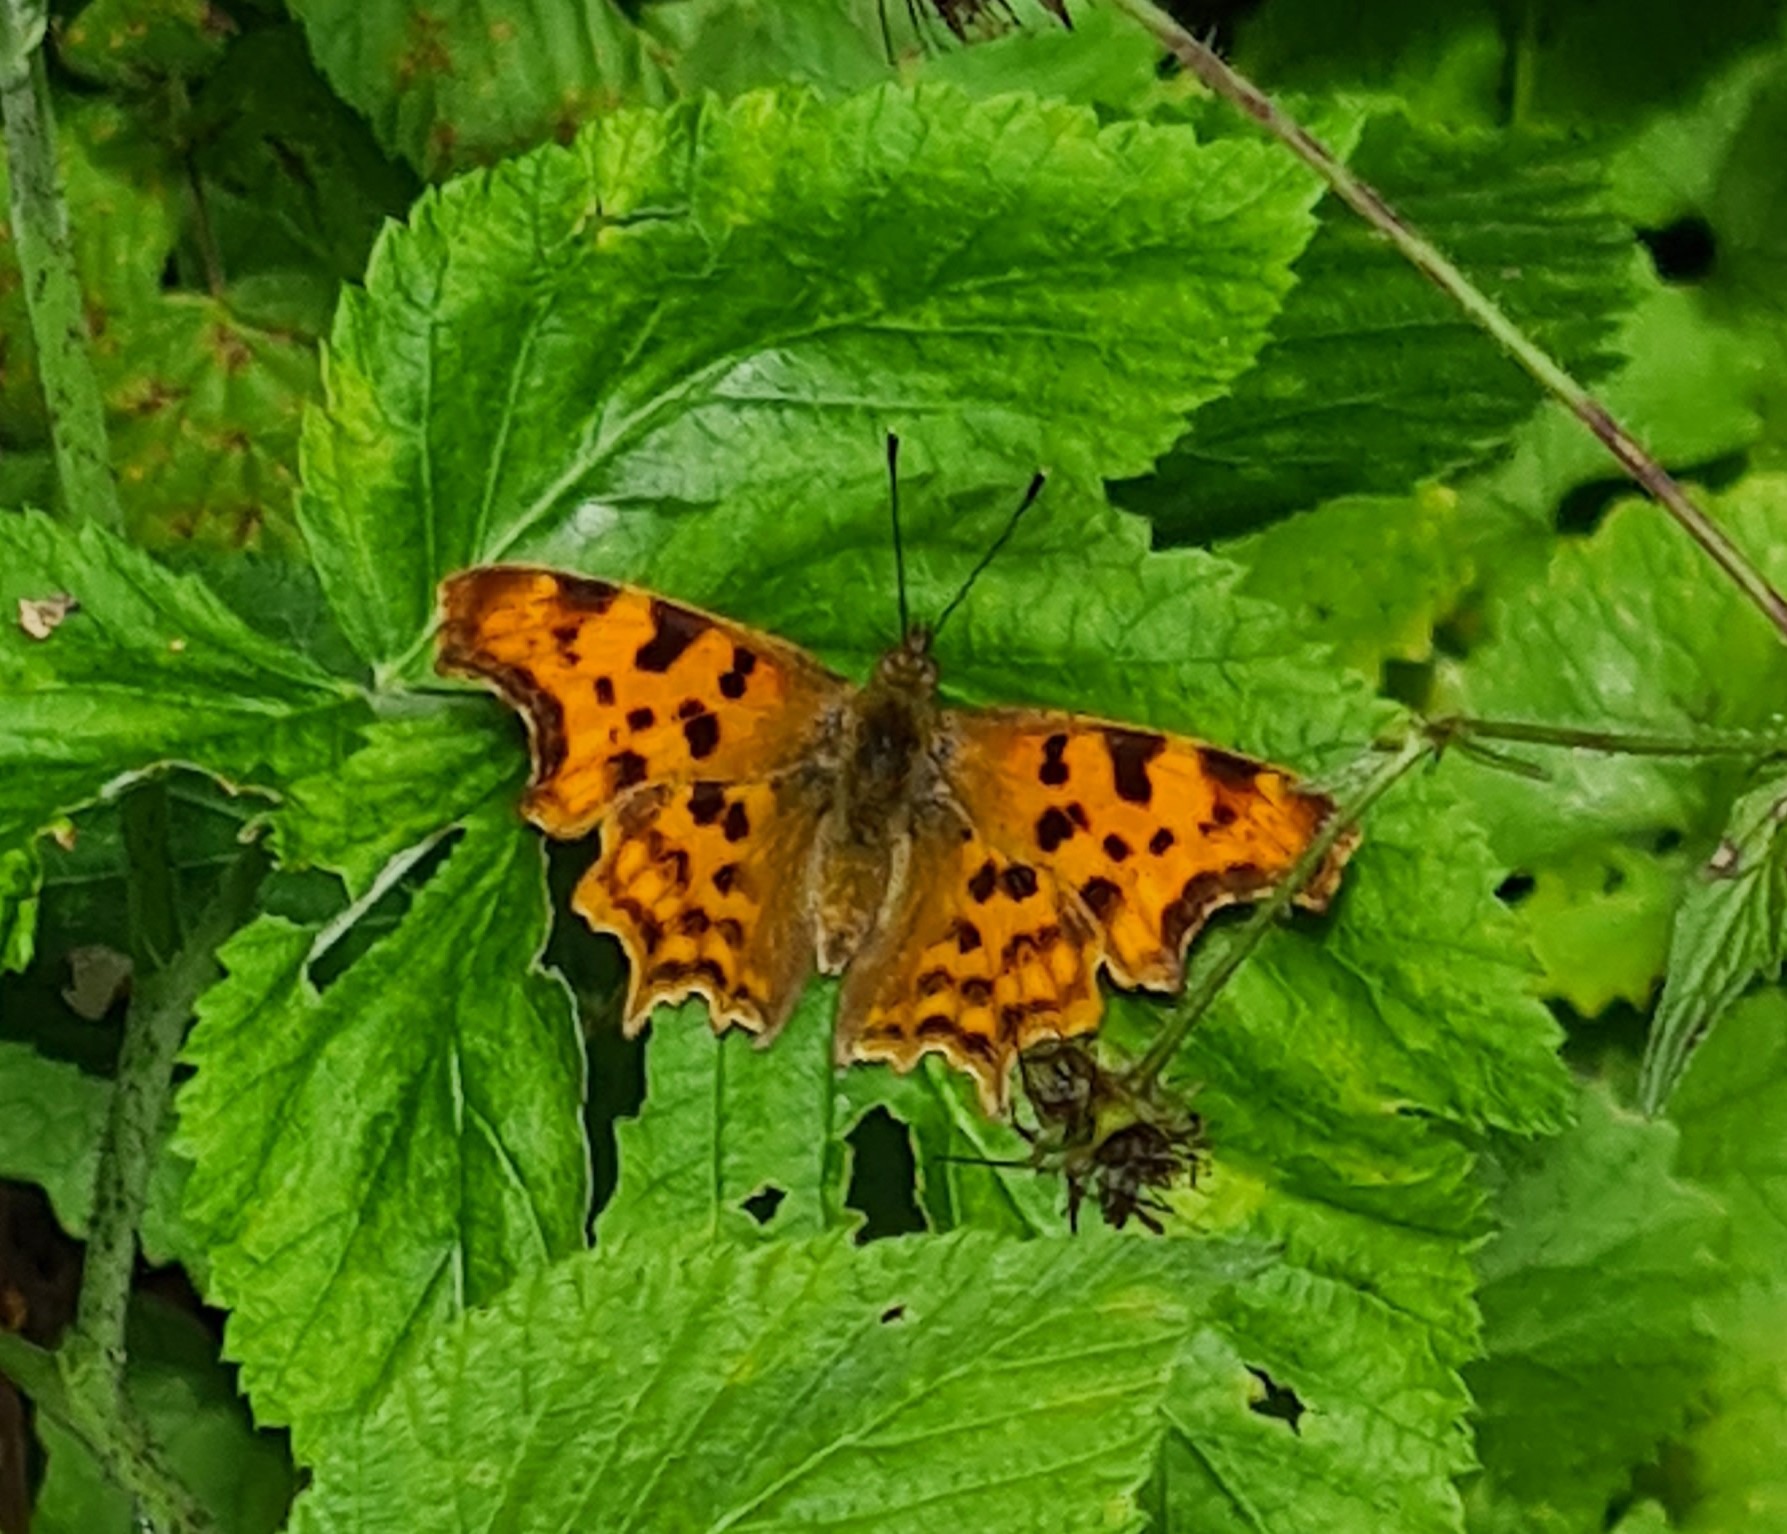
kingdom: Animalia
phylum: Arthropoda
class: Insecta
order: Lepidoptera
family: Nymphalidae
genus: Polygonia
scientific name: Polygonia c-album
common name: Det hvide C
